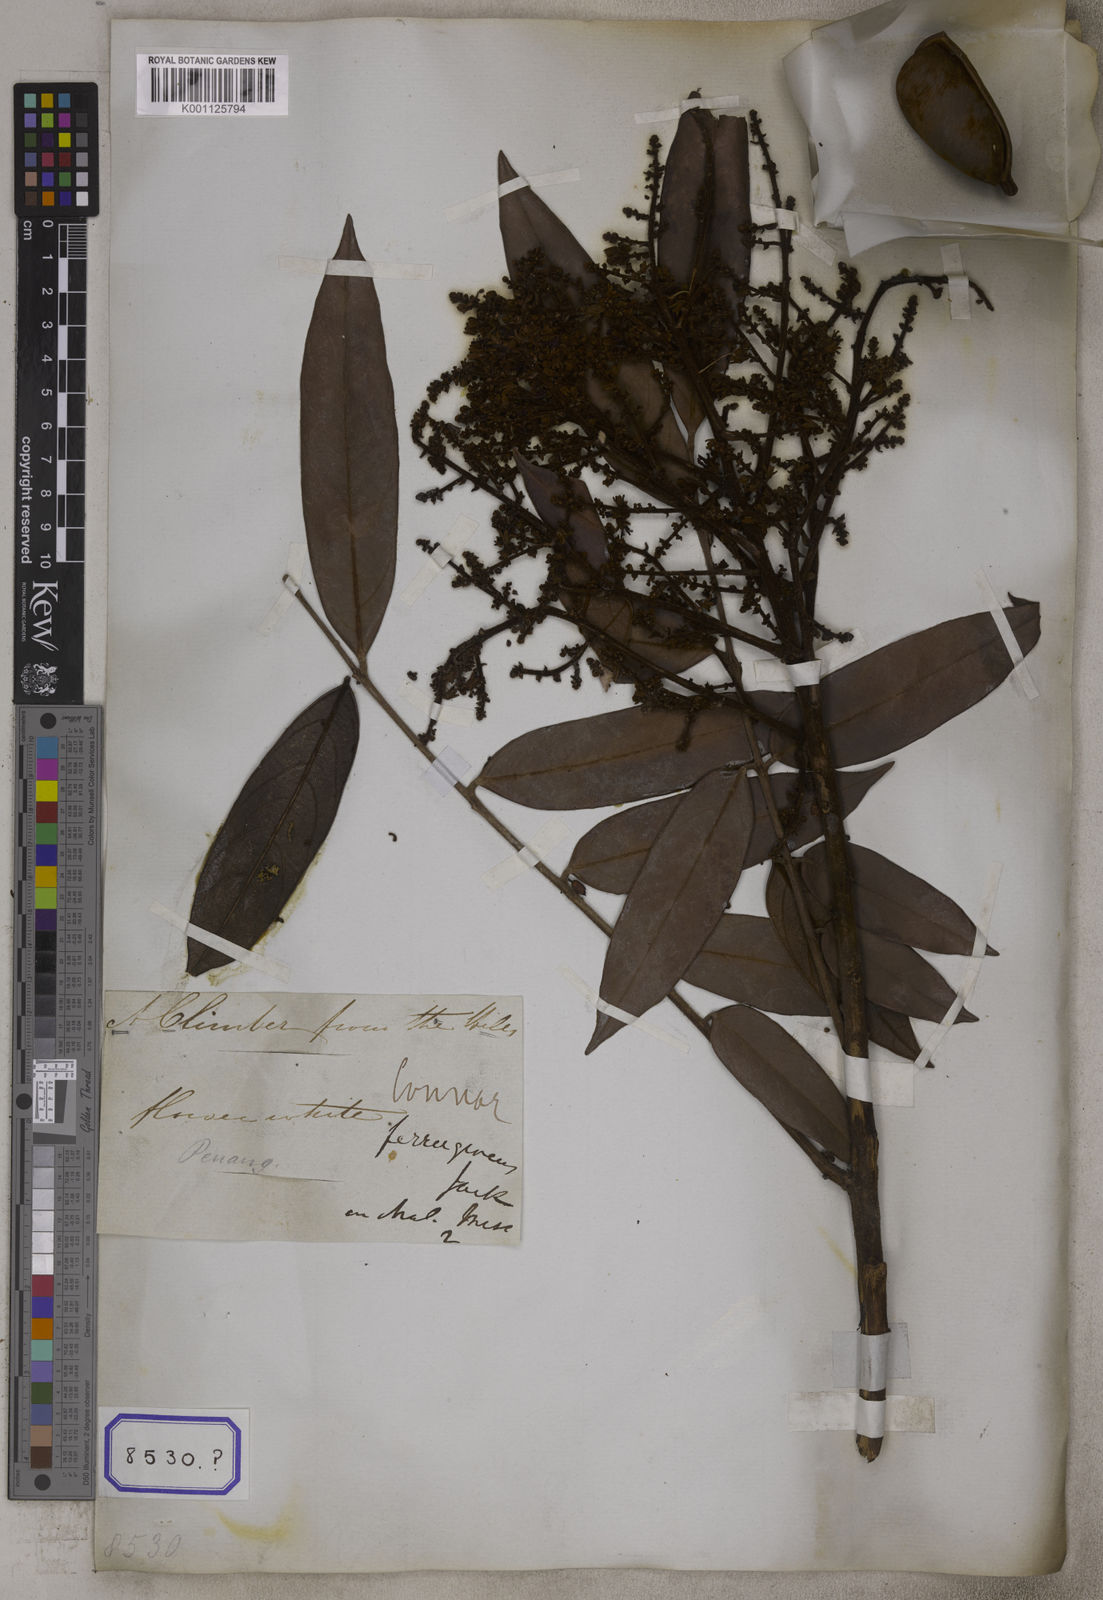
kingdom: Plantae
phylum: Tracheophyta
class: Magnoliopsida
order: Oxalidales
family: Connaraceae
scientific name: Connaraceae
